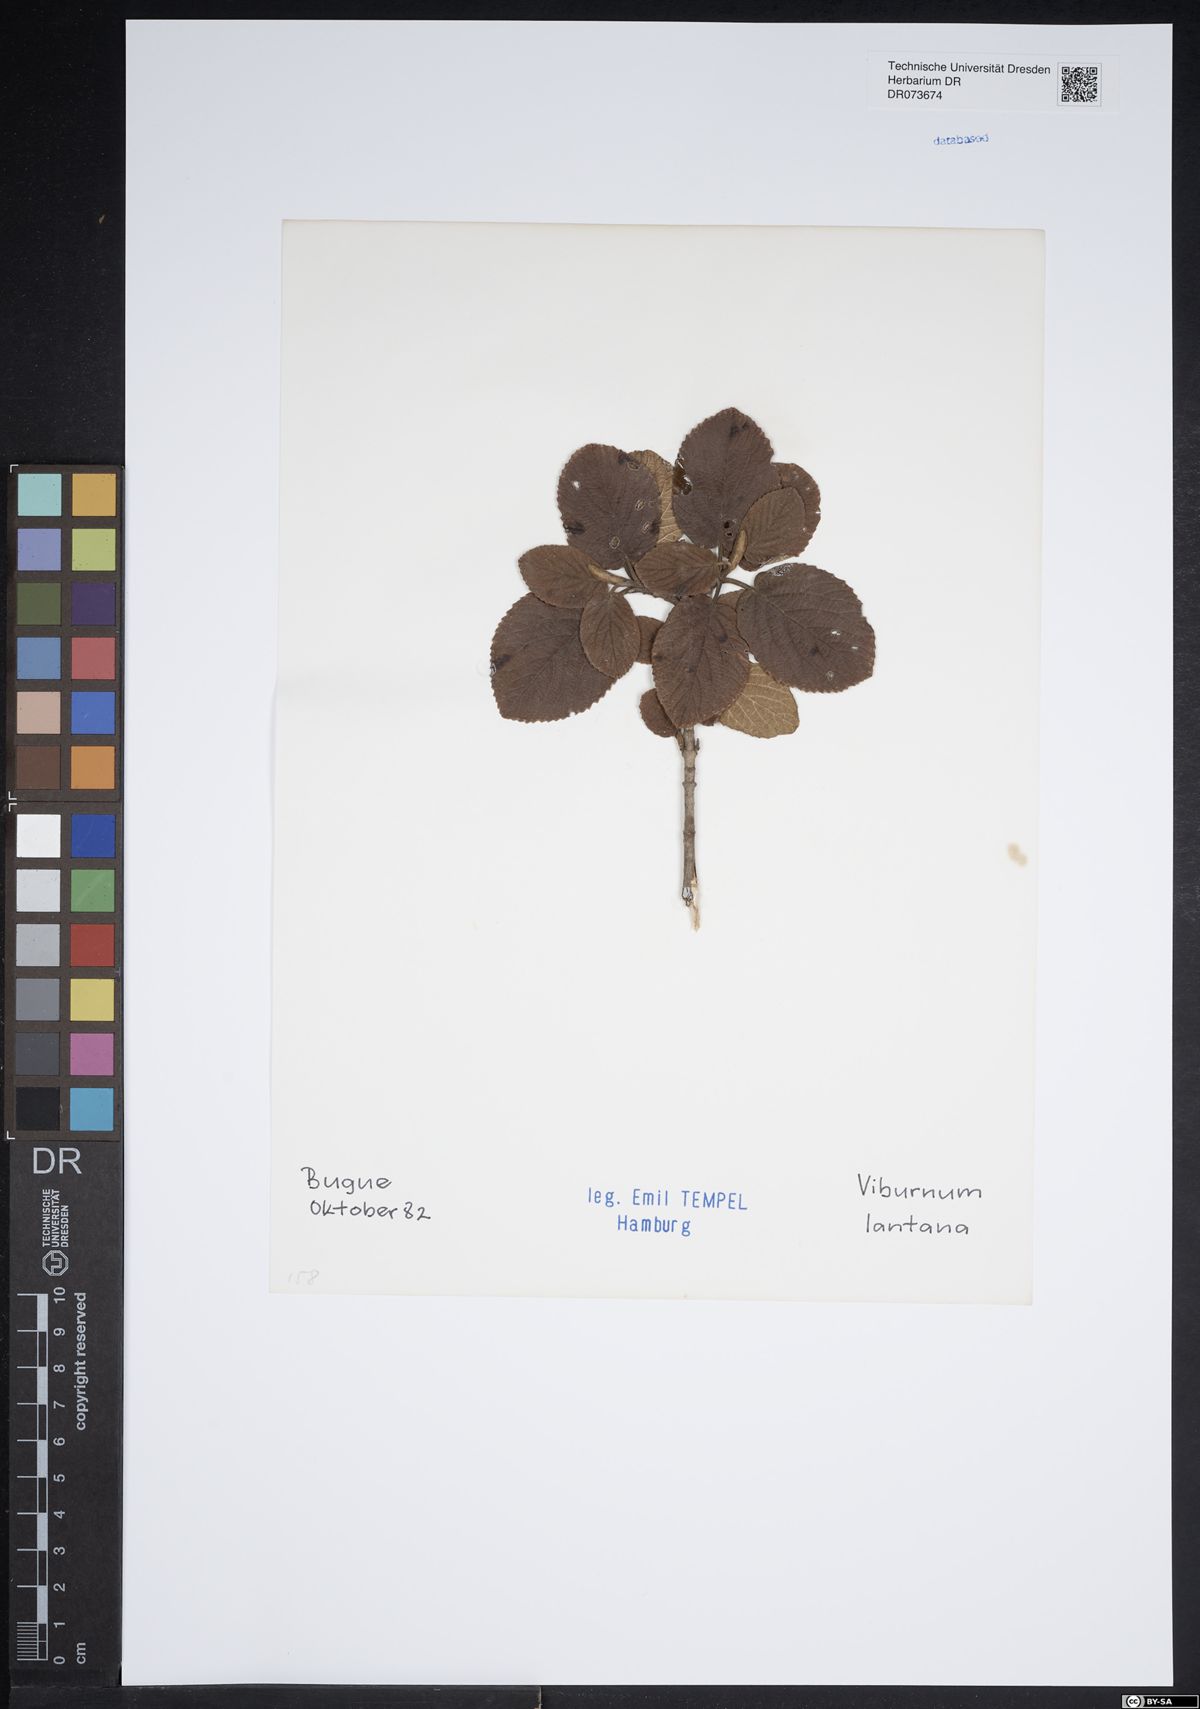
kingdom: Plantae
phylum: Tracheophyta
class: Magnoliopsida
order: Dipsacales
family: Viburnaceae
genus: Viburnum
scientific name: Viburnum lantana
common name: Wayfaring tree
